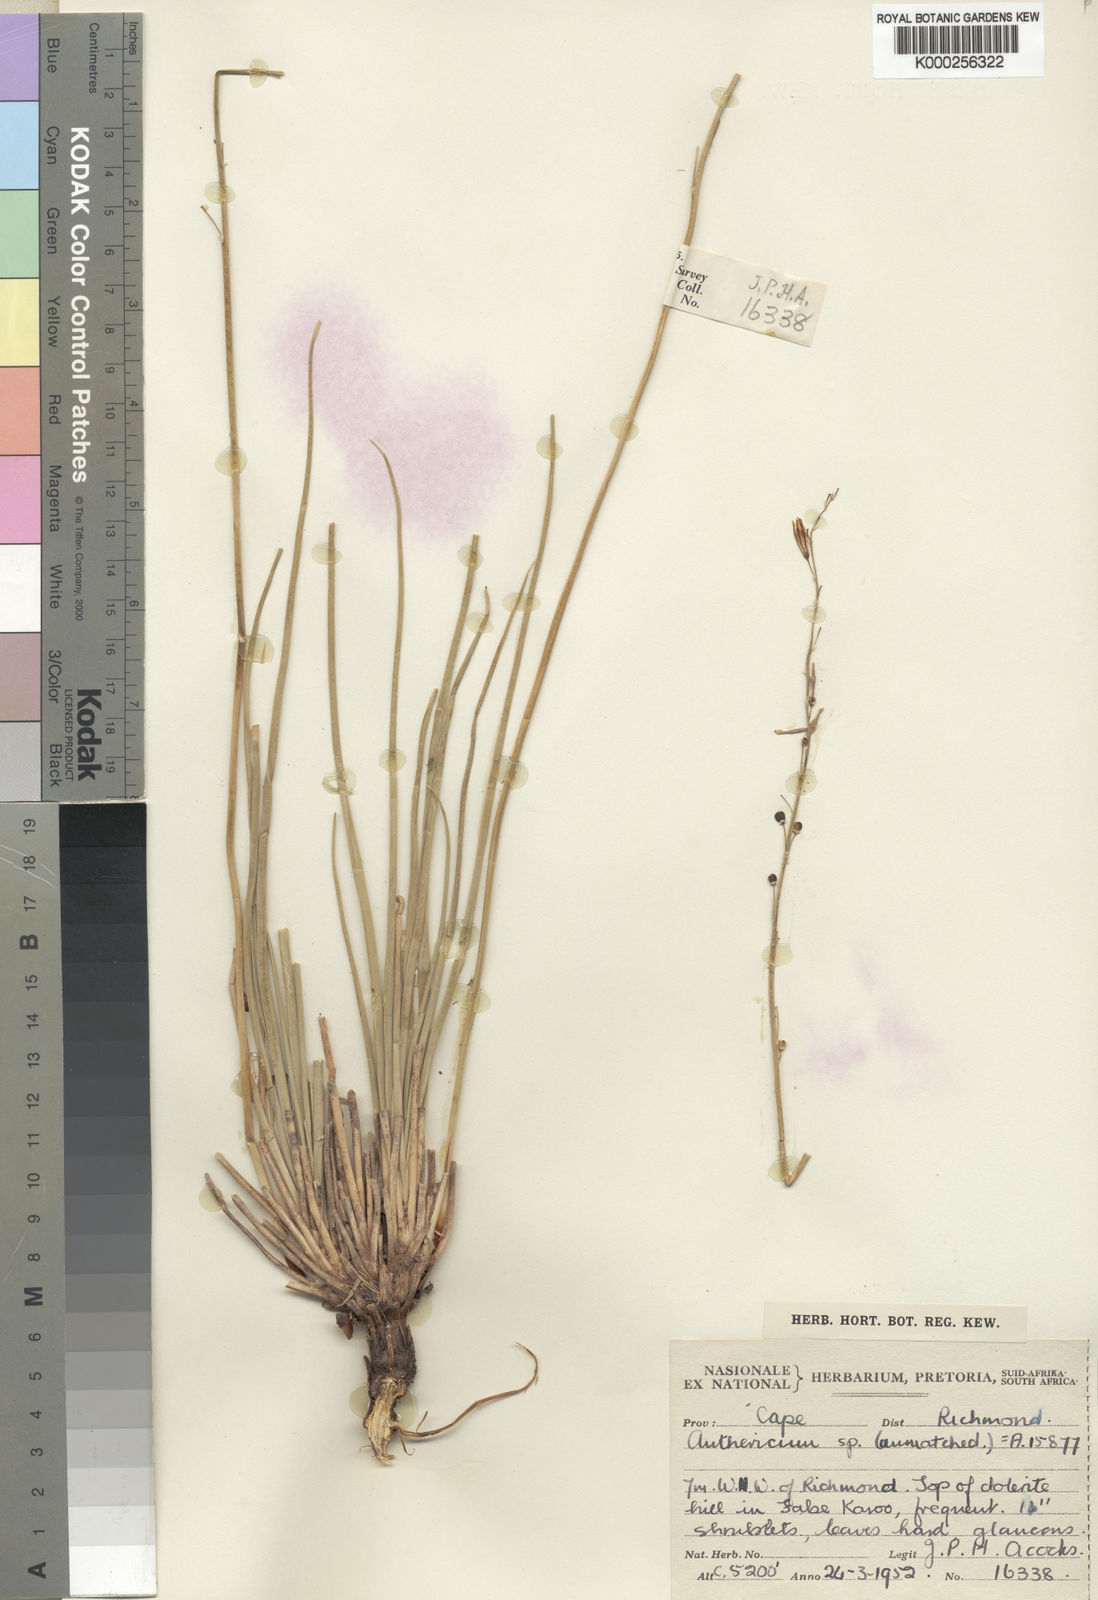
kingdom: Plantae
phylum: Tracheophyta
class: Liliopsida
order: Asparagales
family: Asphodelaceae
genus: Trachyandra
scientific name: Trachyandra acocksii
